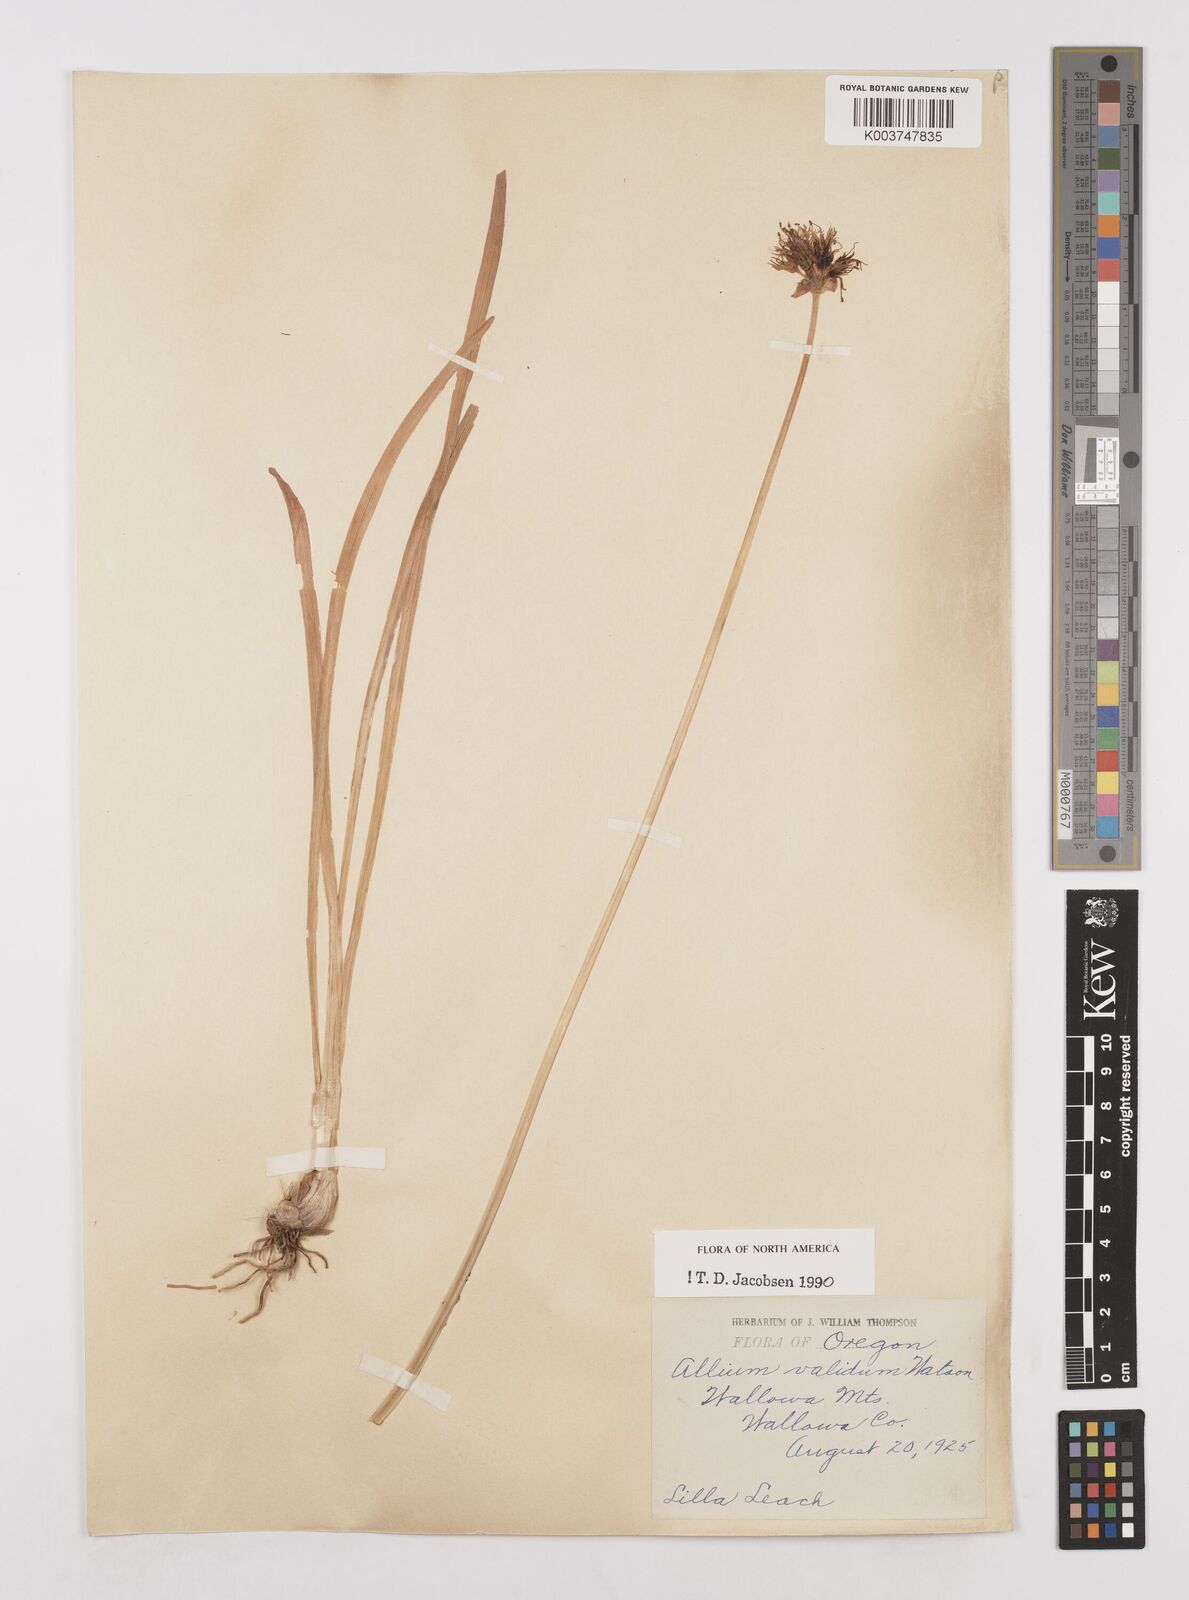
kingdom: Plantae
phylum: Tracheophyta
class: Liliopsida
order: Asparagales
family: Amaryllidaceae
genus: Allium
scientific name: Allium validum
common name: Pacific mountain onion
